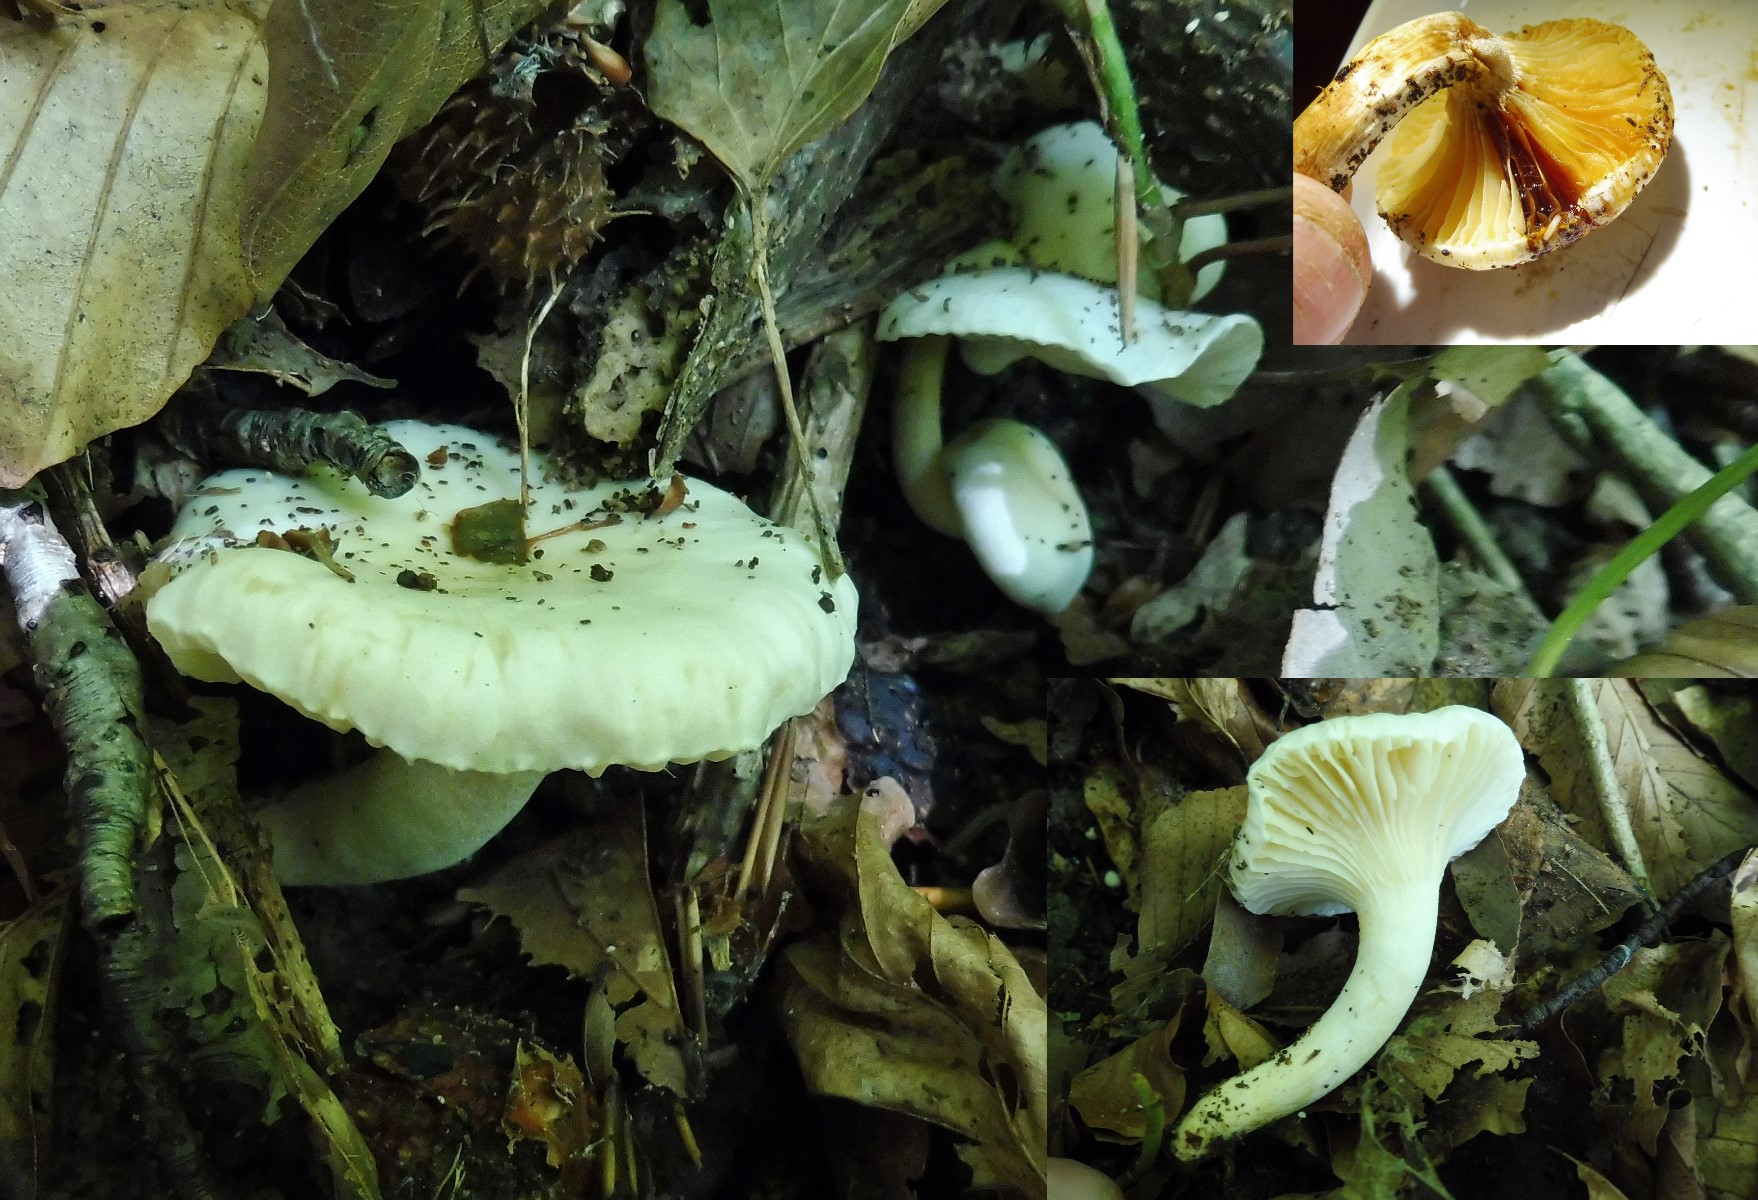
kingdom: Fungi
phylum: Basidiomycota
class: Agaricomycetes
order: Agaricales
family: Hygrophoraceae
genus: Hygrophorus
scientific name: Hygrophorus discoxanthus
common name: ildelugtende sneglehat
